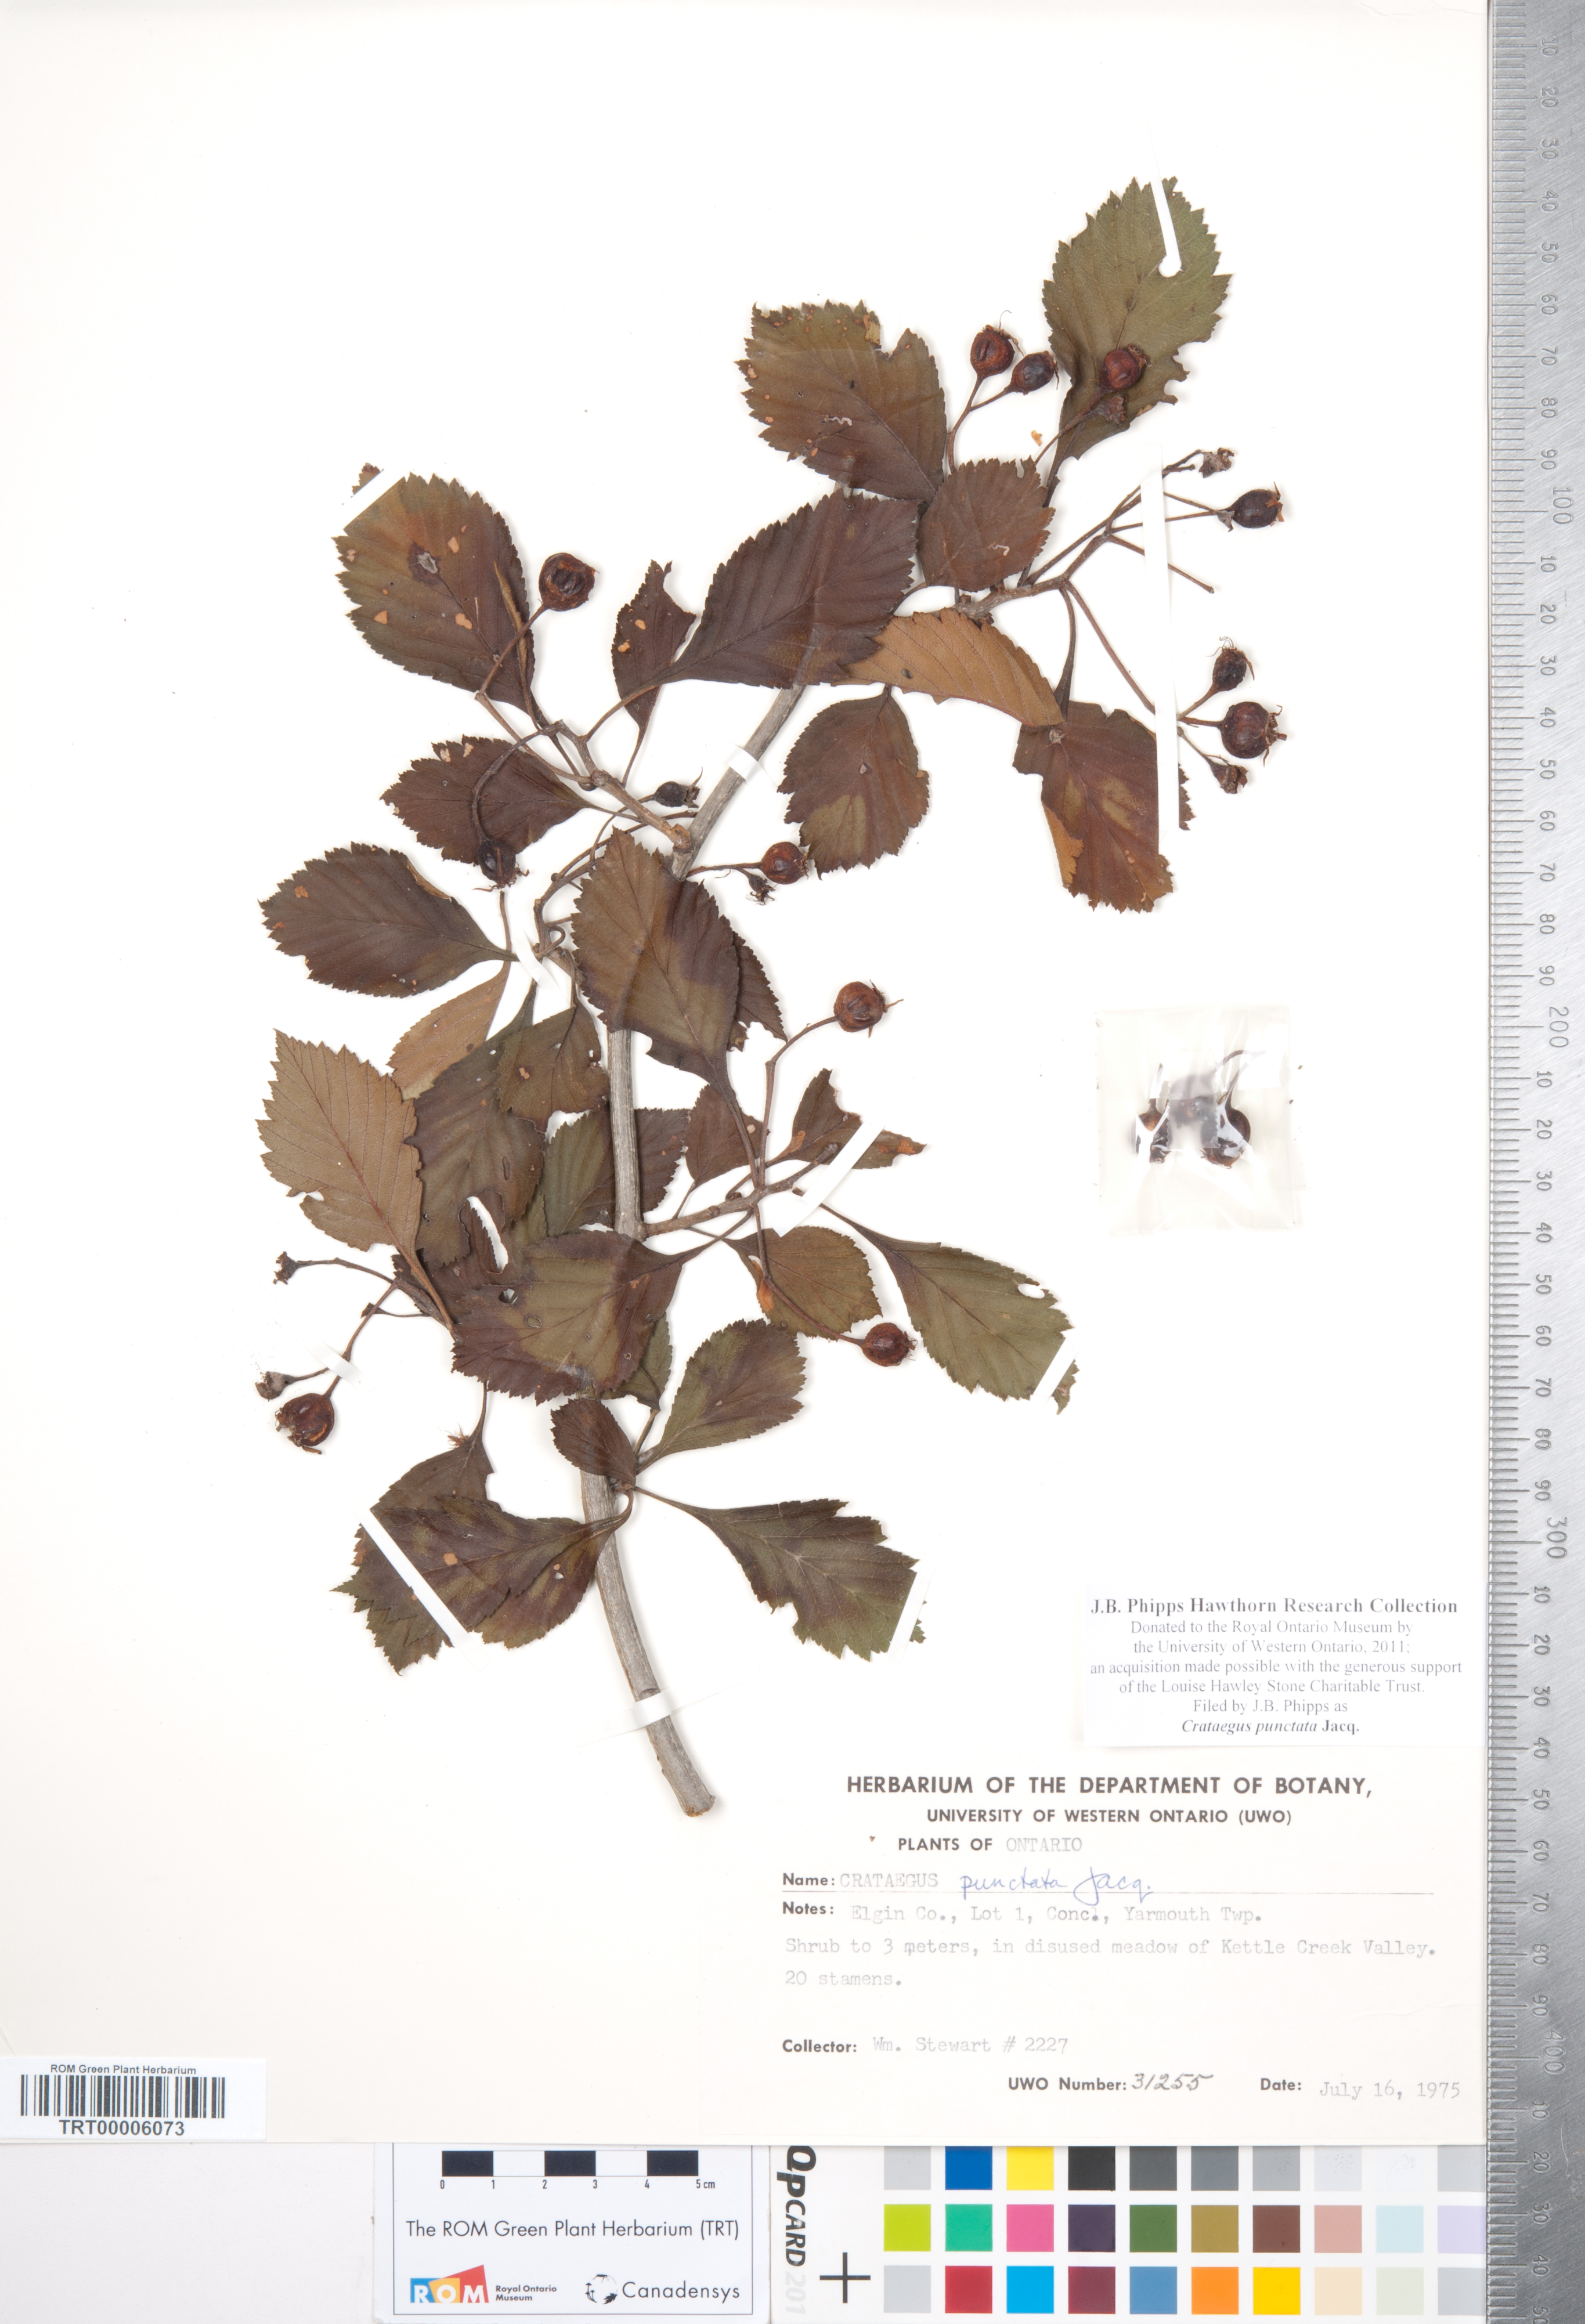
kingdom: Plantae
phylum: Tracheophyta
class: Magnoliopsida
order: Rosales
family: Rosaceae
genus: Crataegus
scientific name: Crataegus punctata
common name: Dotted hawthorn
